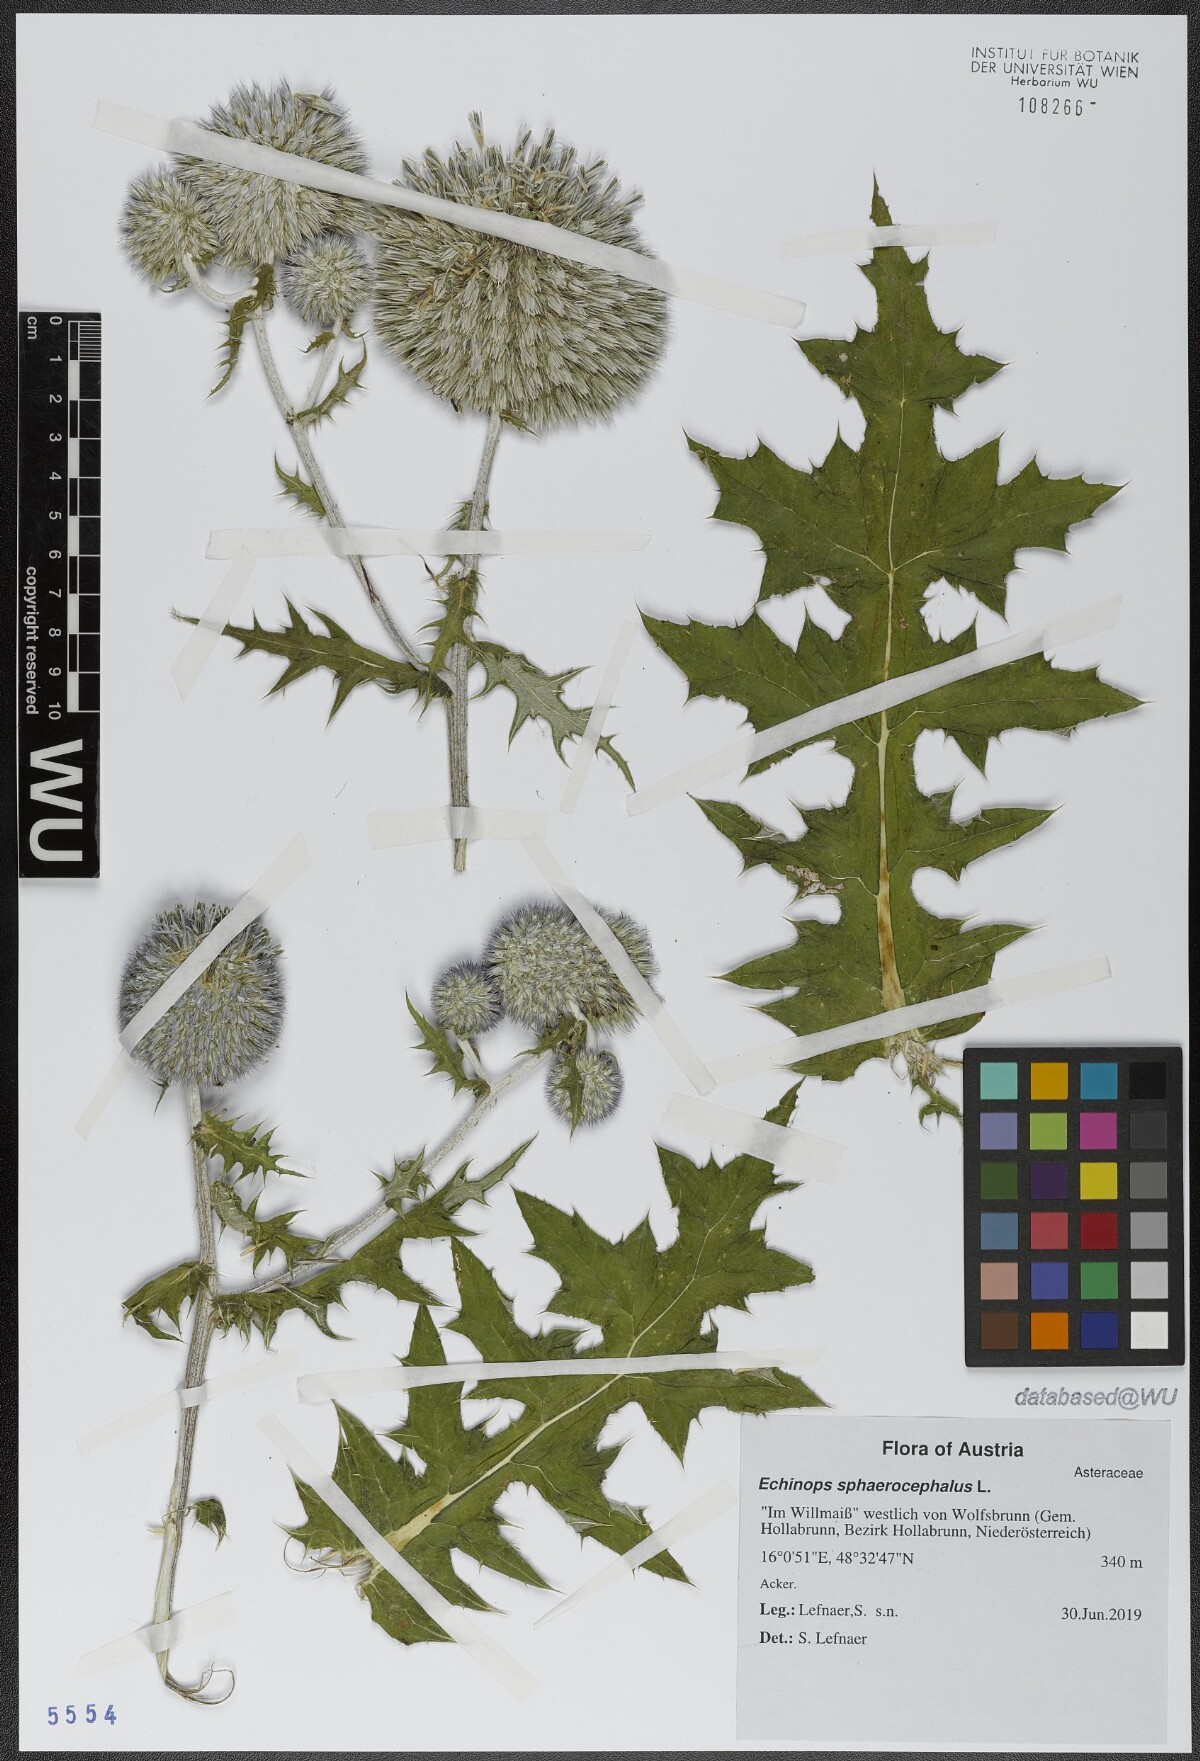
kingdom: Plantae
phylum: Tracheophyta
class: Magnoliopsida
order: Asterales
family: Asteraceae
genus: Echinops
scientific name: Echinops sphaerocephalus
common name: Glandular globe-thistle
